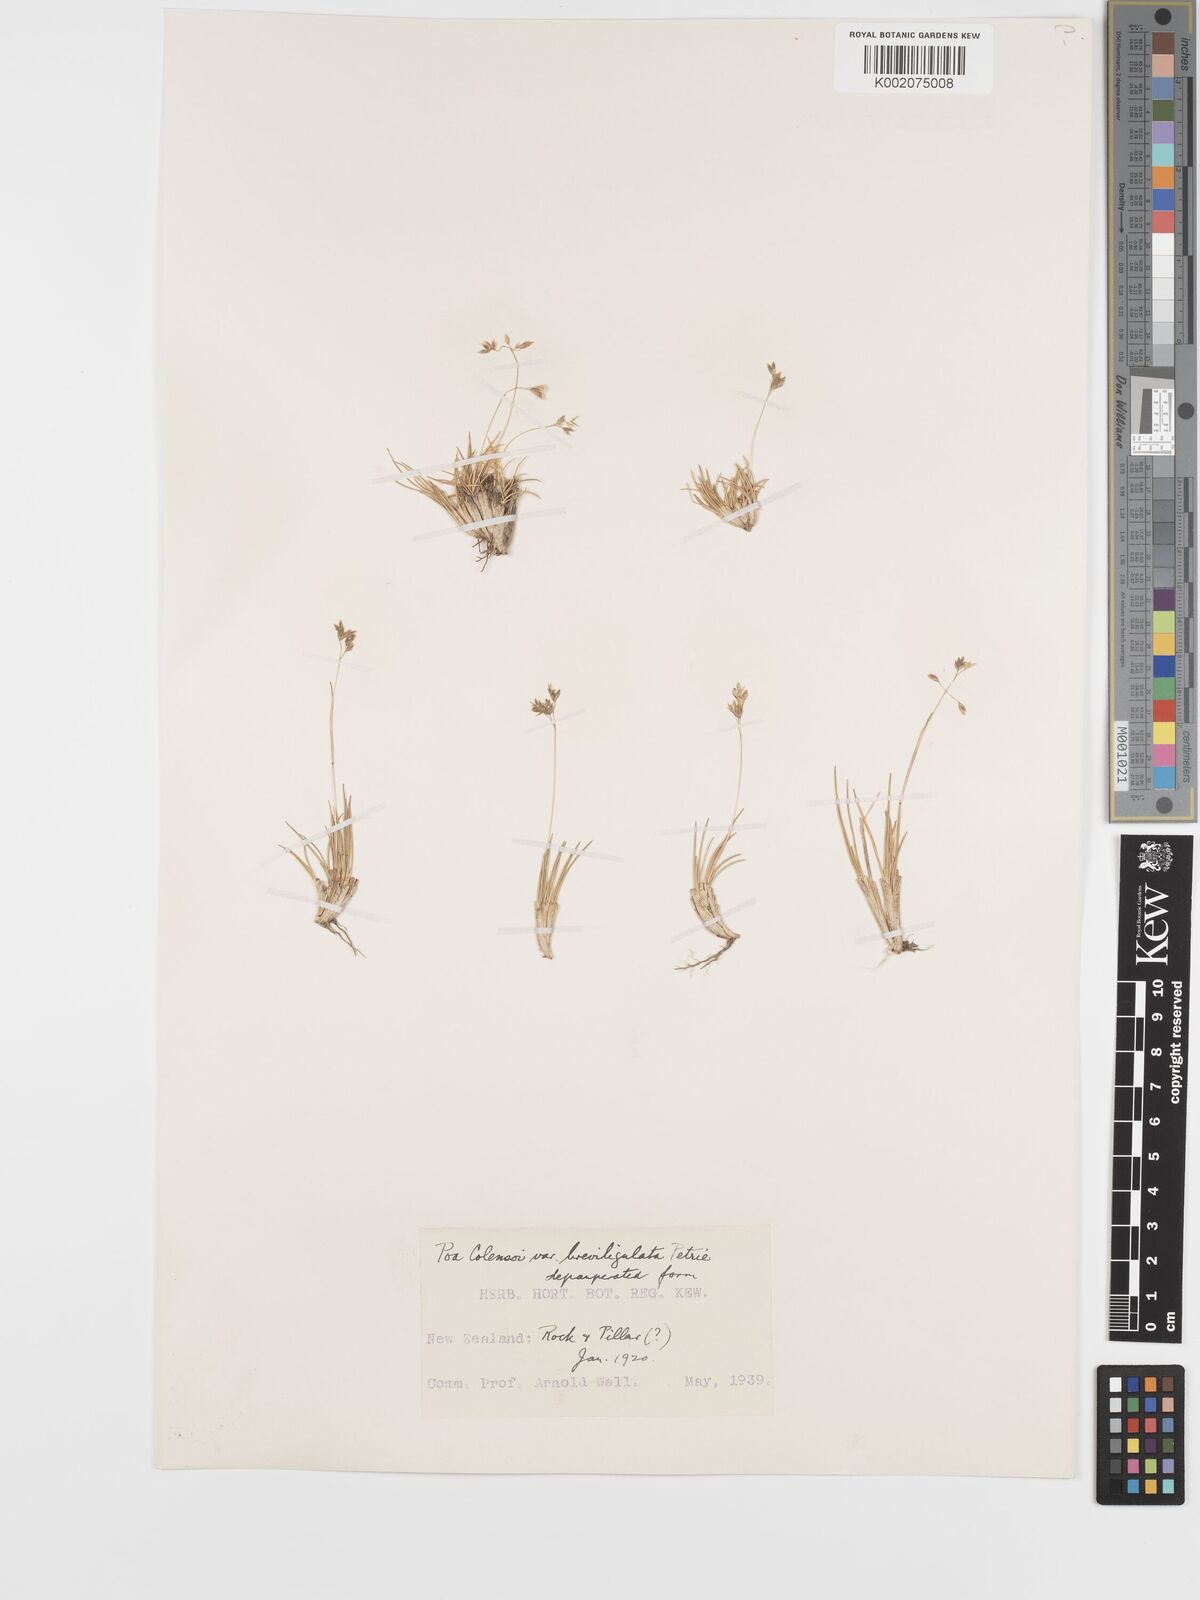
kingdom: Plantae
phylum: Tracheophyta
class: Liliopsida
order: Poales
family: Poaceae
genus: Poa
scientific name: Poa colensoi
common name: Blue tussock
